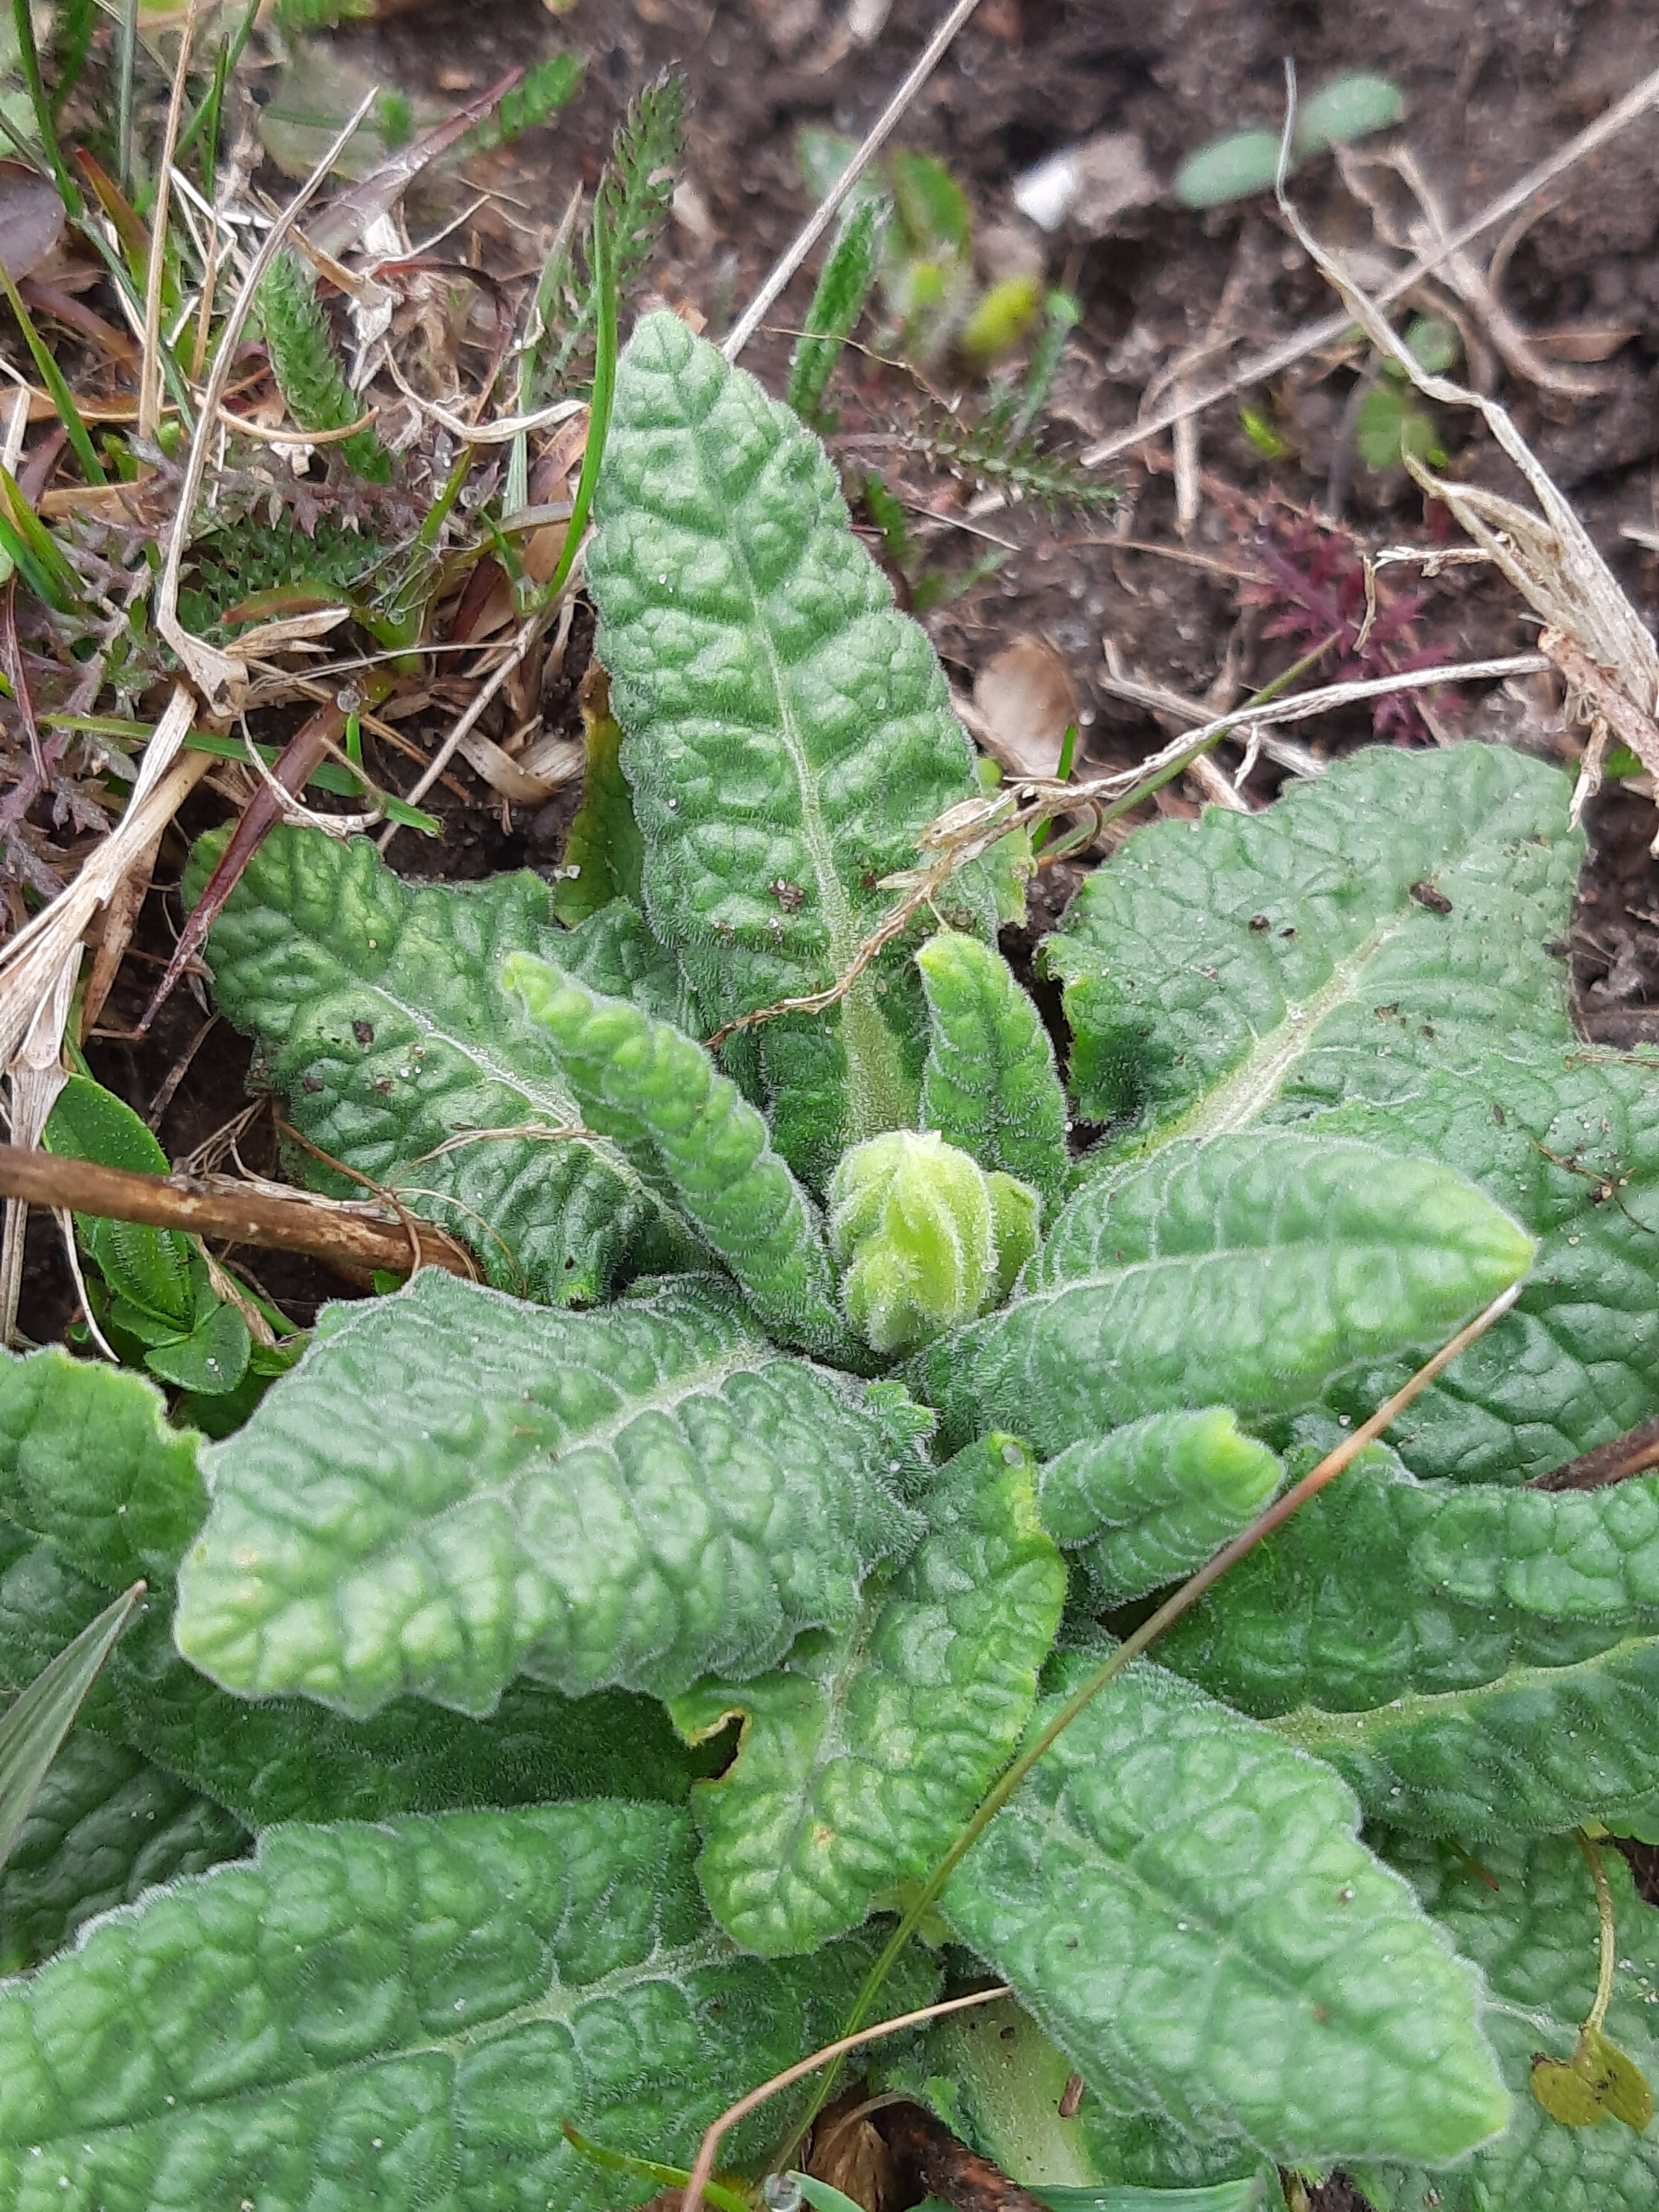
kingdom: Plantae
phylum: Tracheophyta
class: Magnoliopsida
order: Ericales
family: Primulaceae
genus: Primula
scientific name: Primula veris
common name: Hulkravet kodriver
